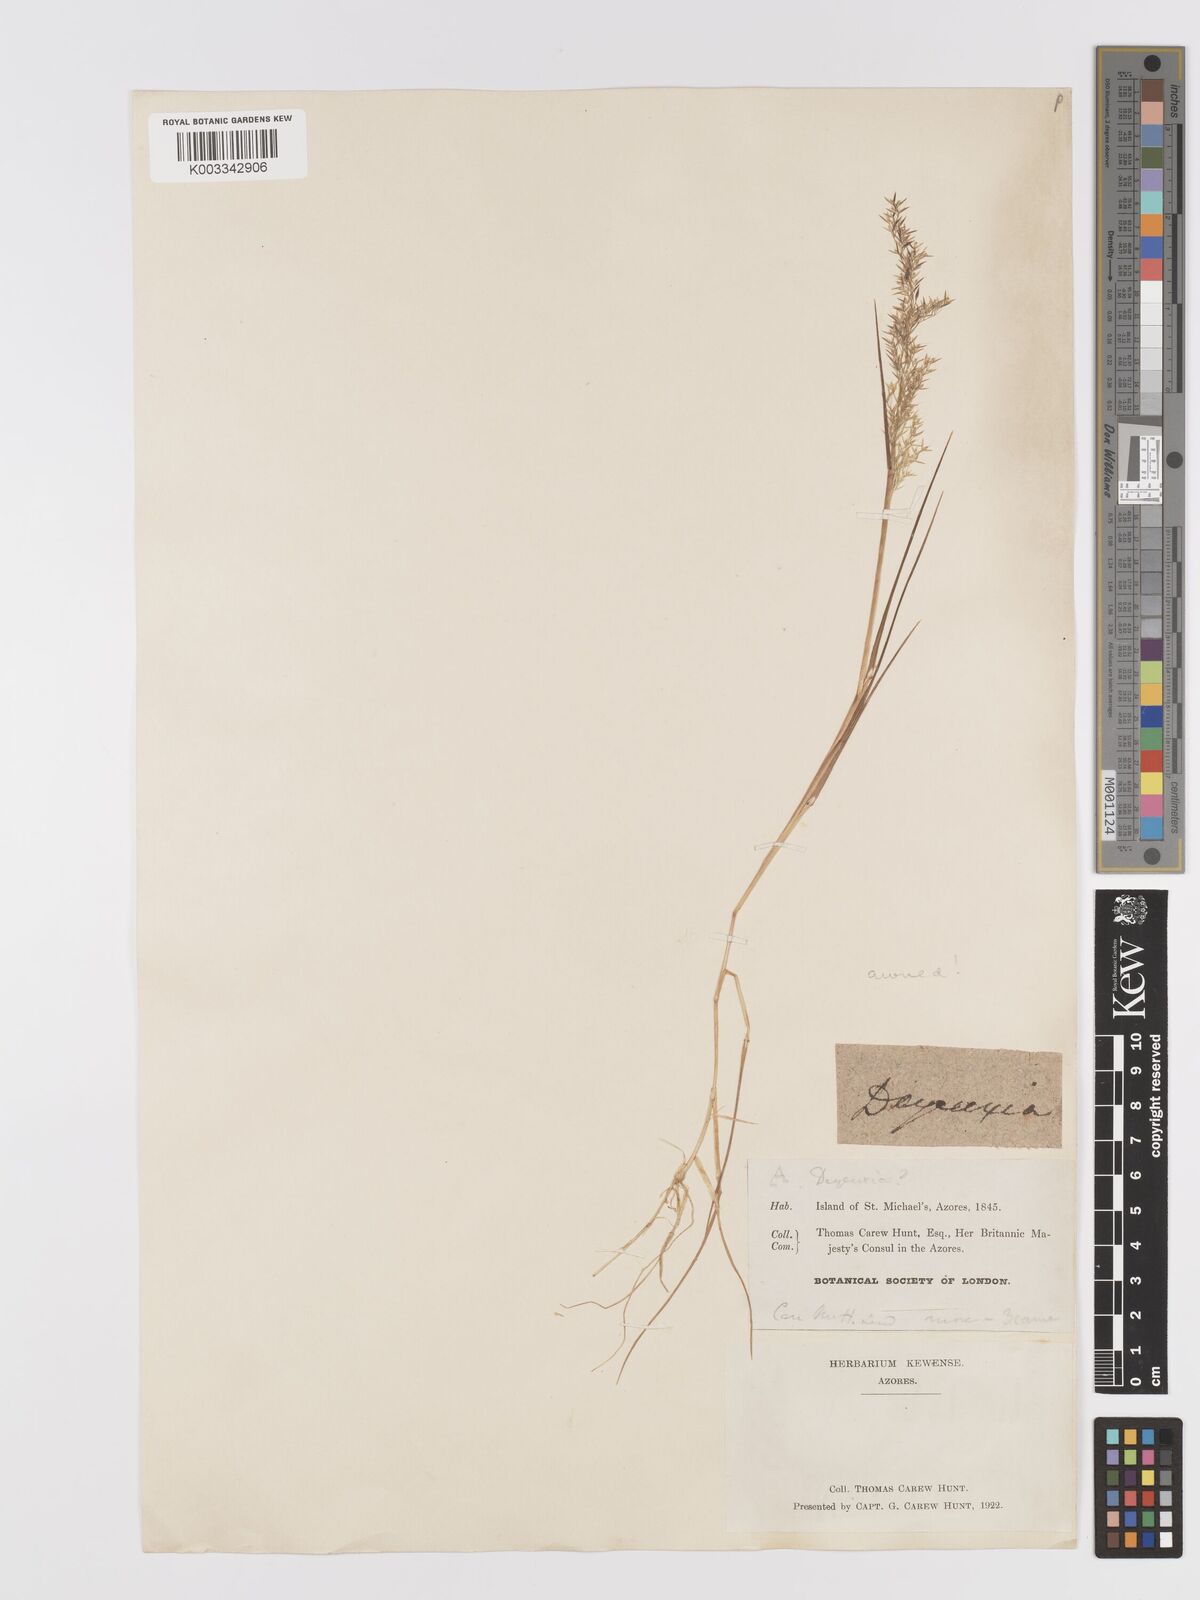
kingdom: Plantae
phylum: Tracheophyta
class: Liliopsida
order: Poales
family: Poaceae
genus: Agrostis
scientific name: Agrostis
